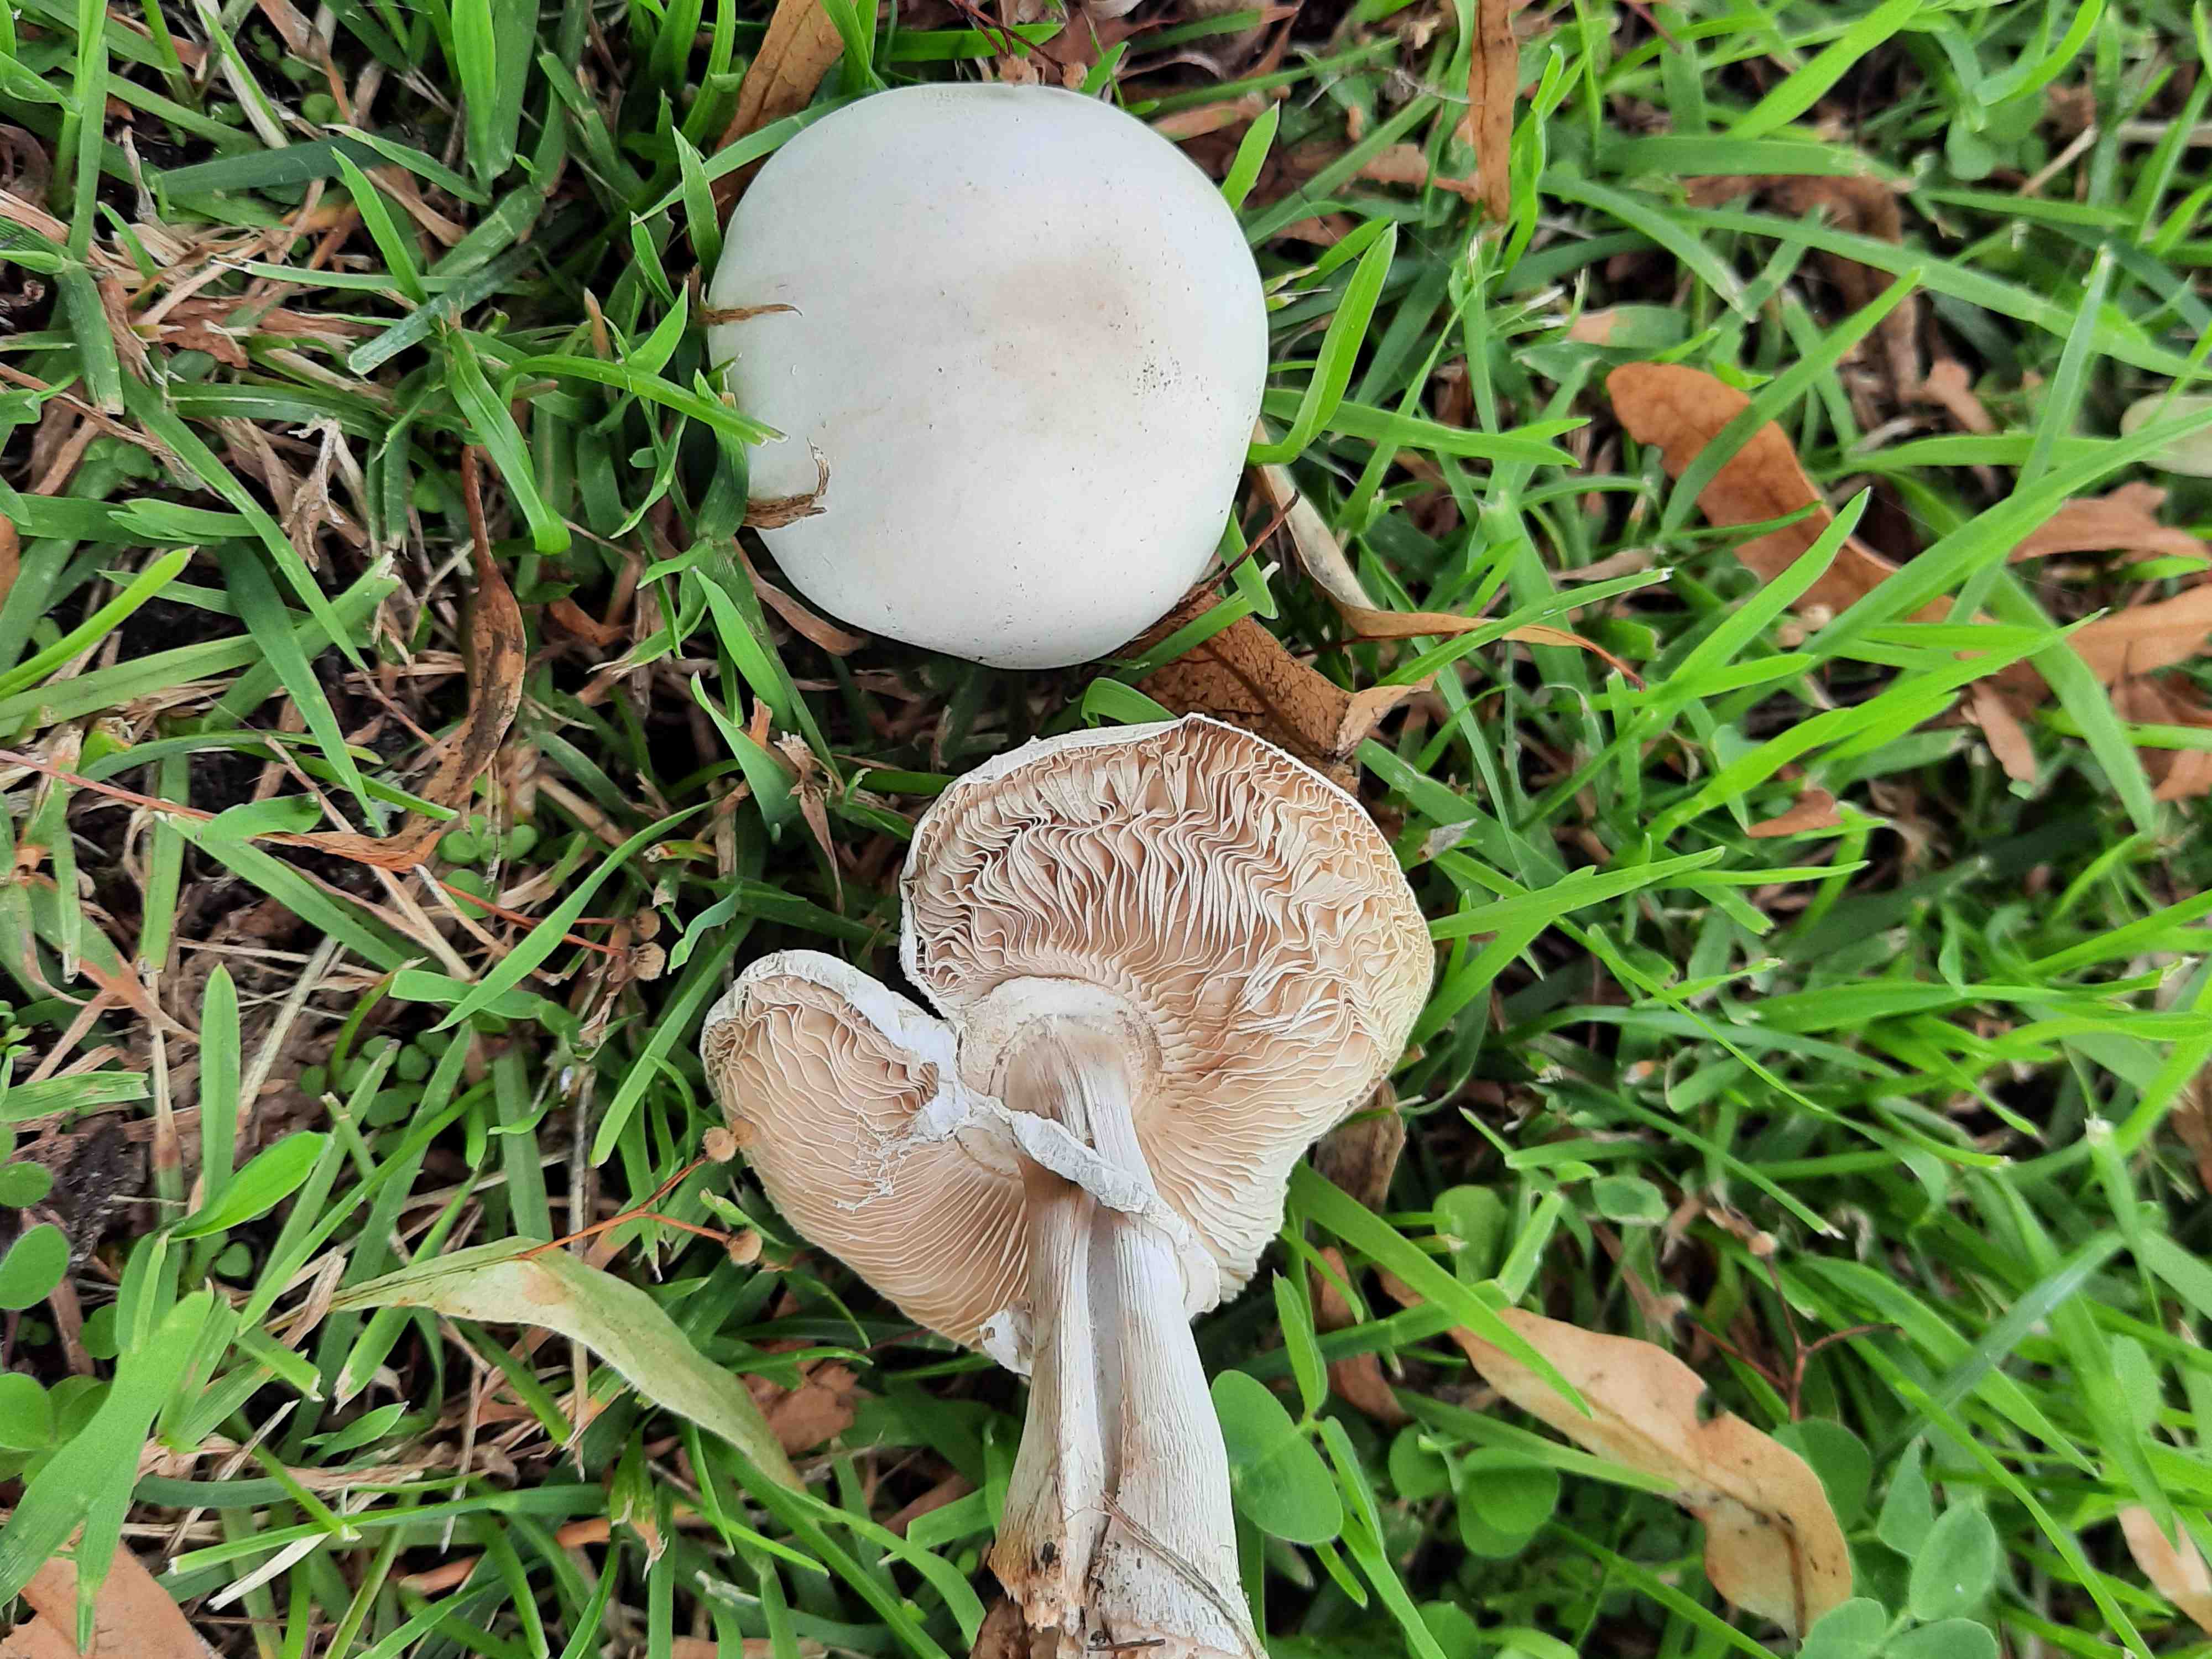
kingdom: Fungi
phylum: Basidiomycota
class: Agaricomycetes
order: Agaricales
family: Agaricaceae
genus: Leucoagaricus
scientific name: Leucoagaricus leucothites
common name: rosabladet silkehat
